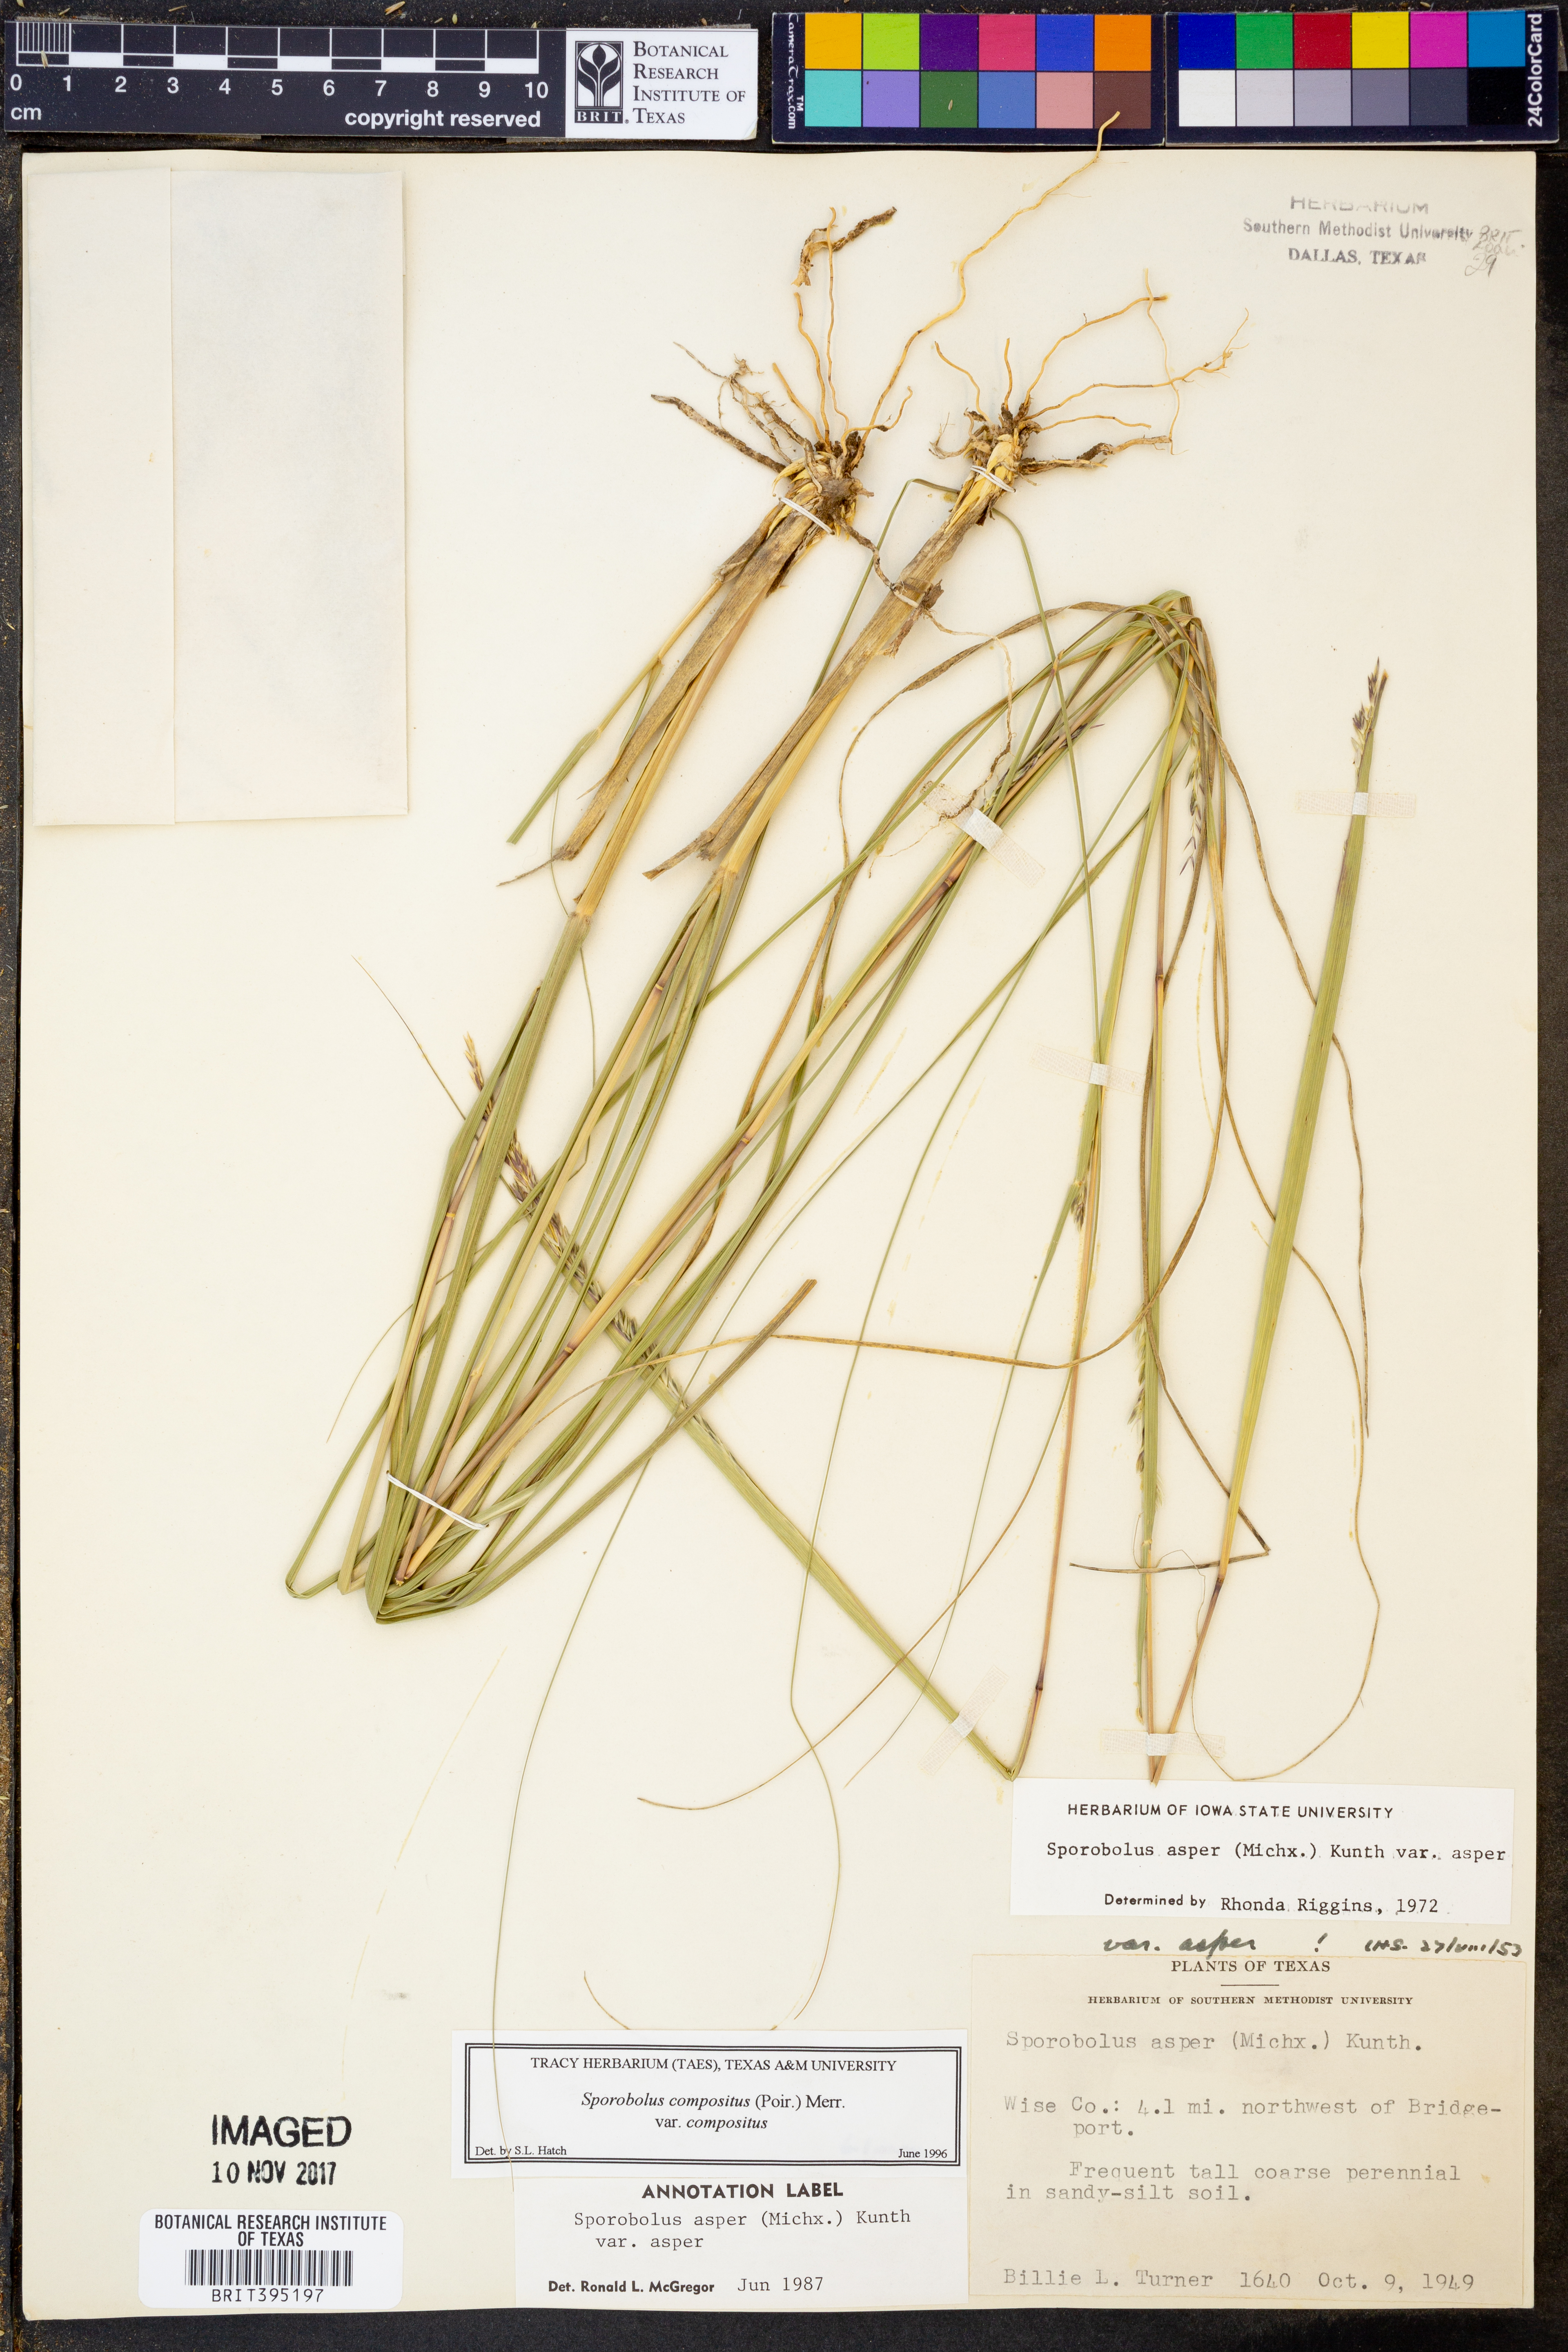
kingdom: Plantae
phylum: Tracheophyta
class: Liliopsida
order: Poales
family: Poaceae
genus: Sporobolus
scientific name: Sporobolus compositus
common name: Rough dropseed
